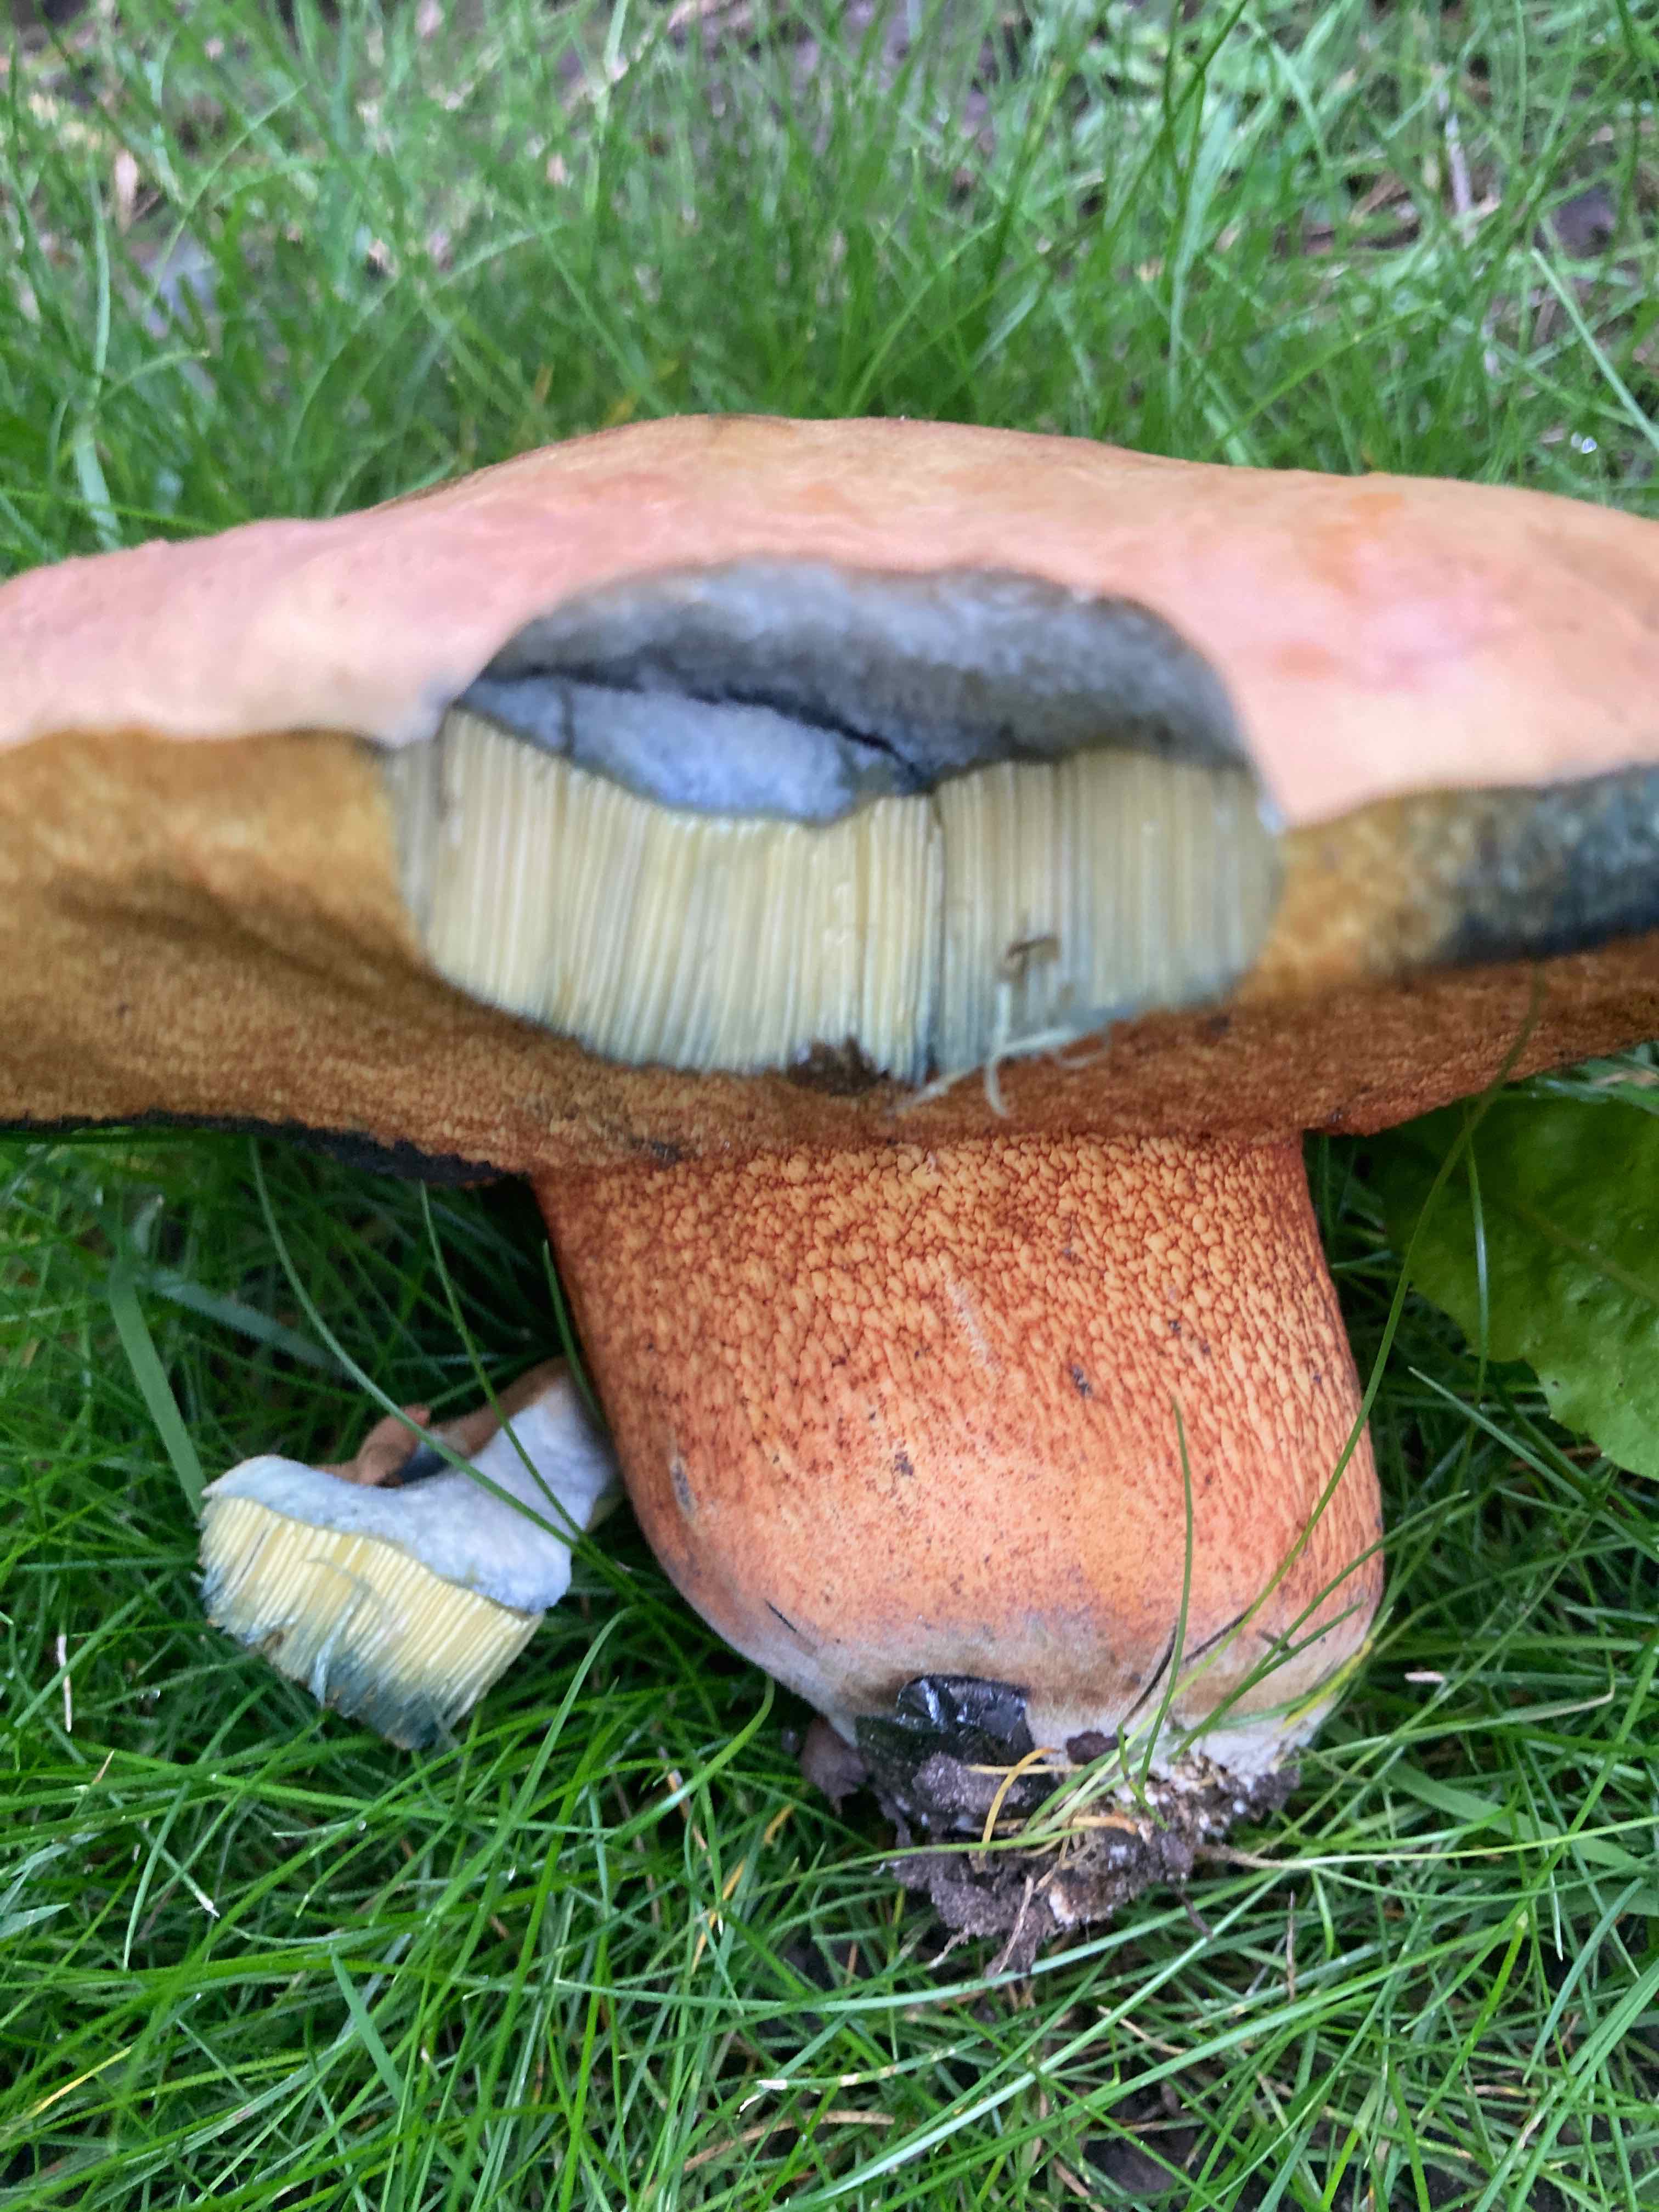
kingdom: Fungi
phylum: Basidiomycota
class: Agaricomycetes
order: Boletales
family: Boletaceae
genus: Suillellus
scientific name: Suillellus luridus
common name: netstokket indigorørhat
